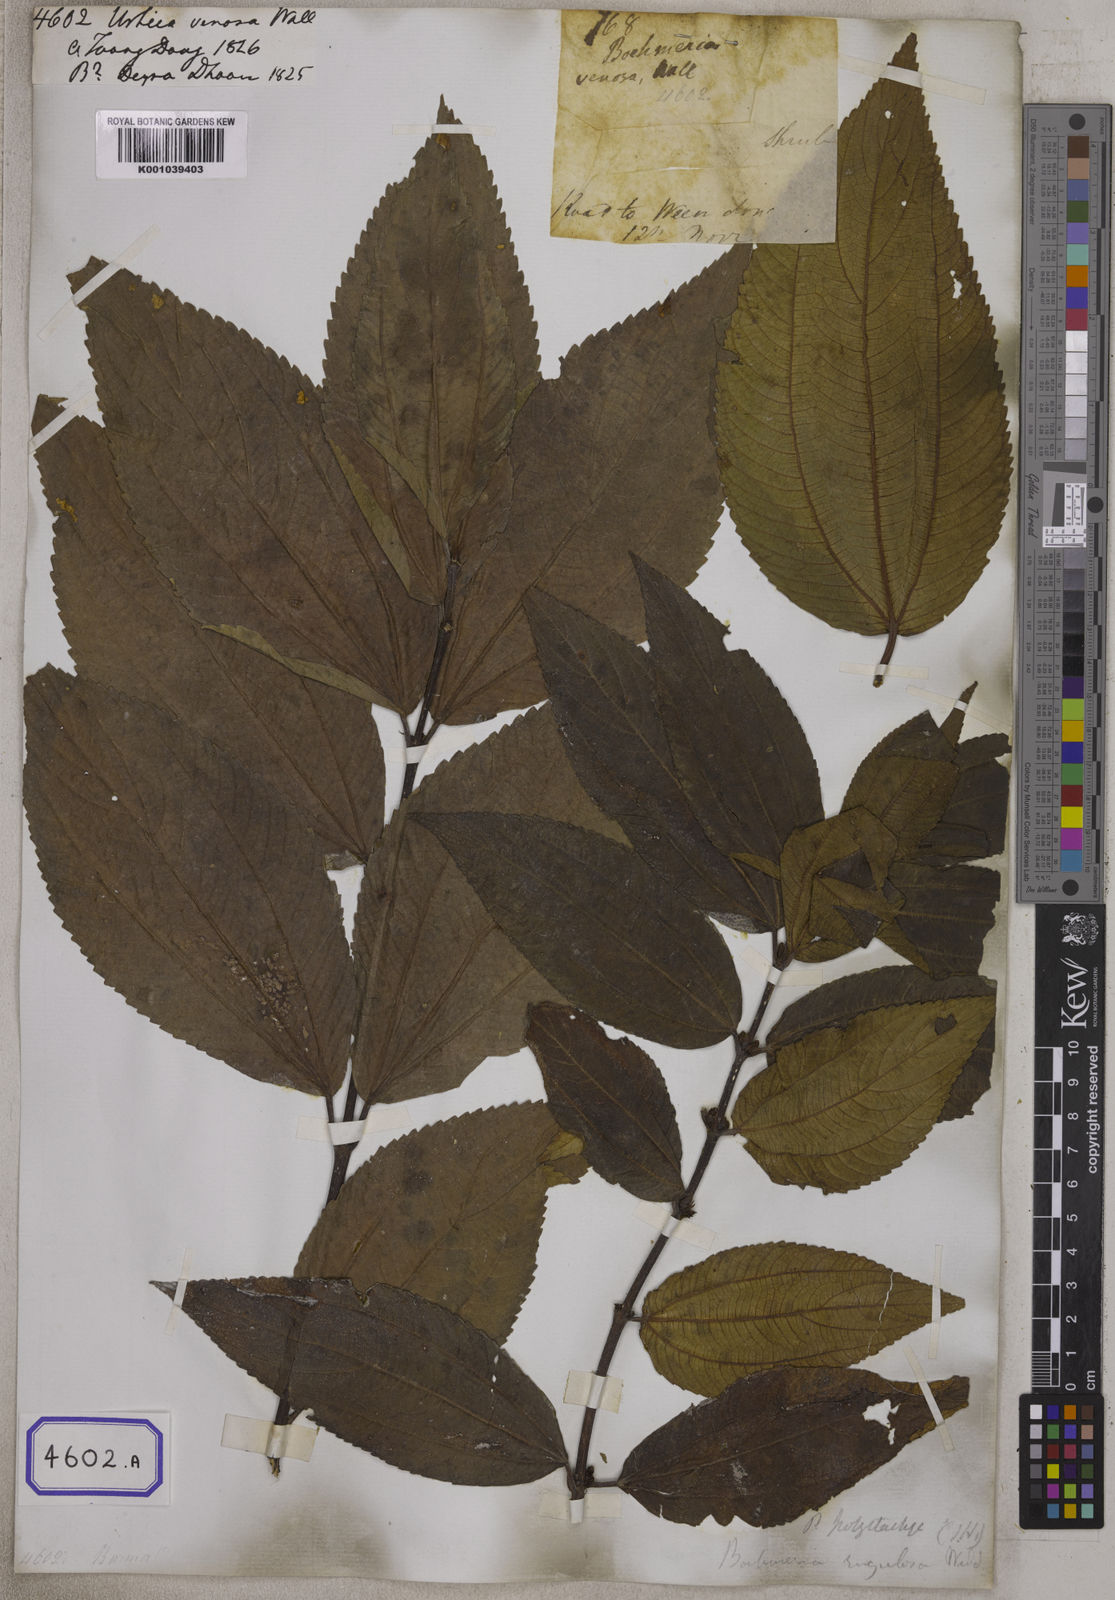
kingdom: Plantae
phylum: Tracheophyta
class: Magnoliopsida
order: Rosales
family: Urticaceae
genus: Urtica
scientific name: Urtica
